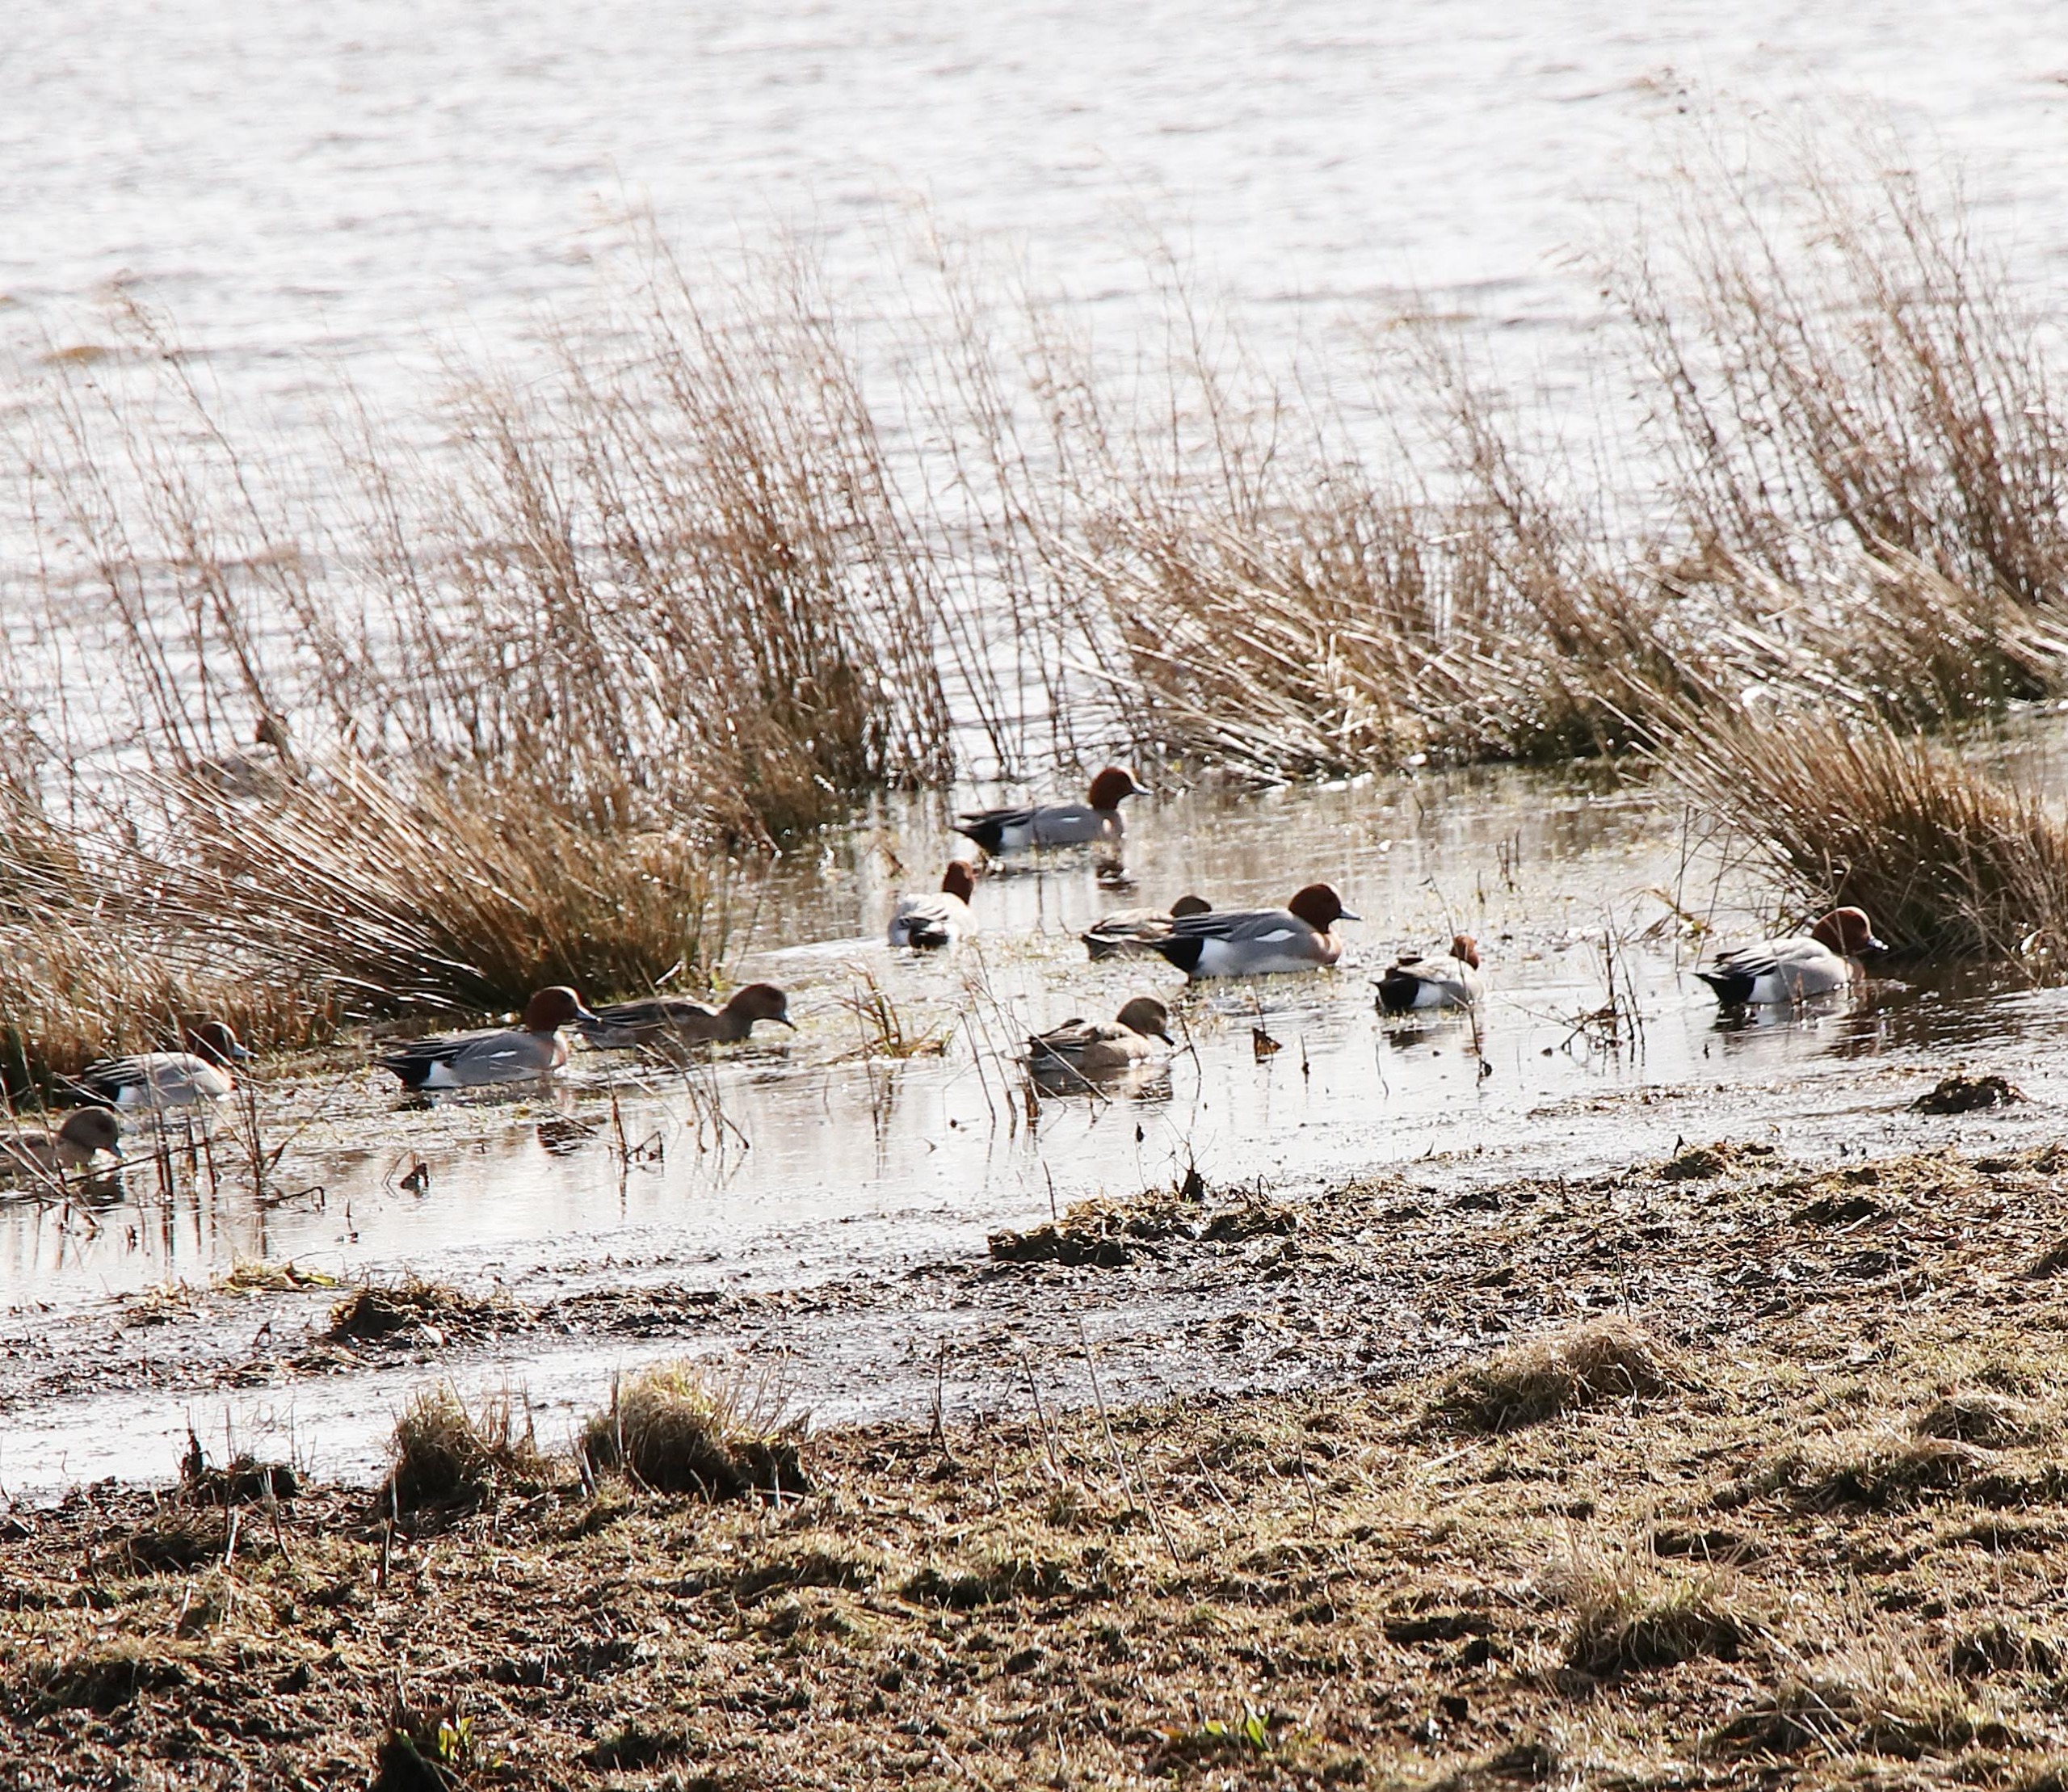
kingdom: Animalia
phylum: Chordata
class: Aves
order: Anseriformes
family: Anatidae
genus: Mareca
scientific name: Mareca penelope
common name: Pibeand
